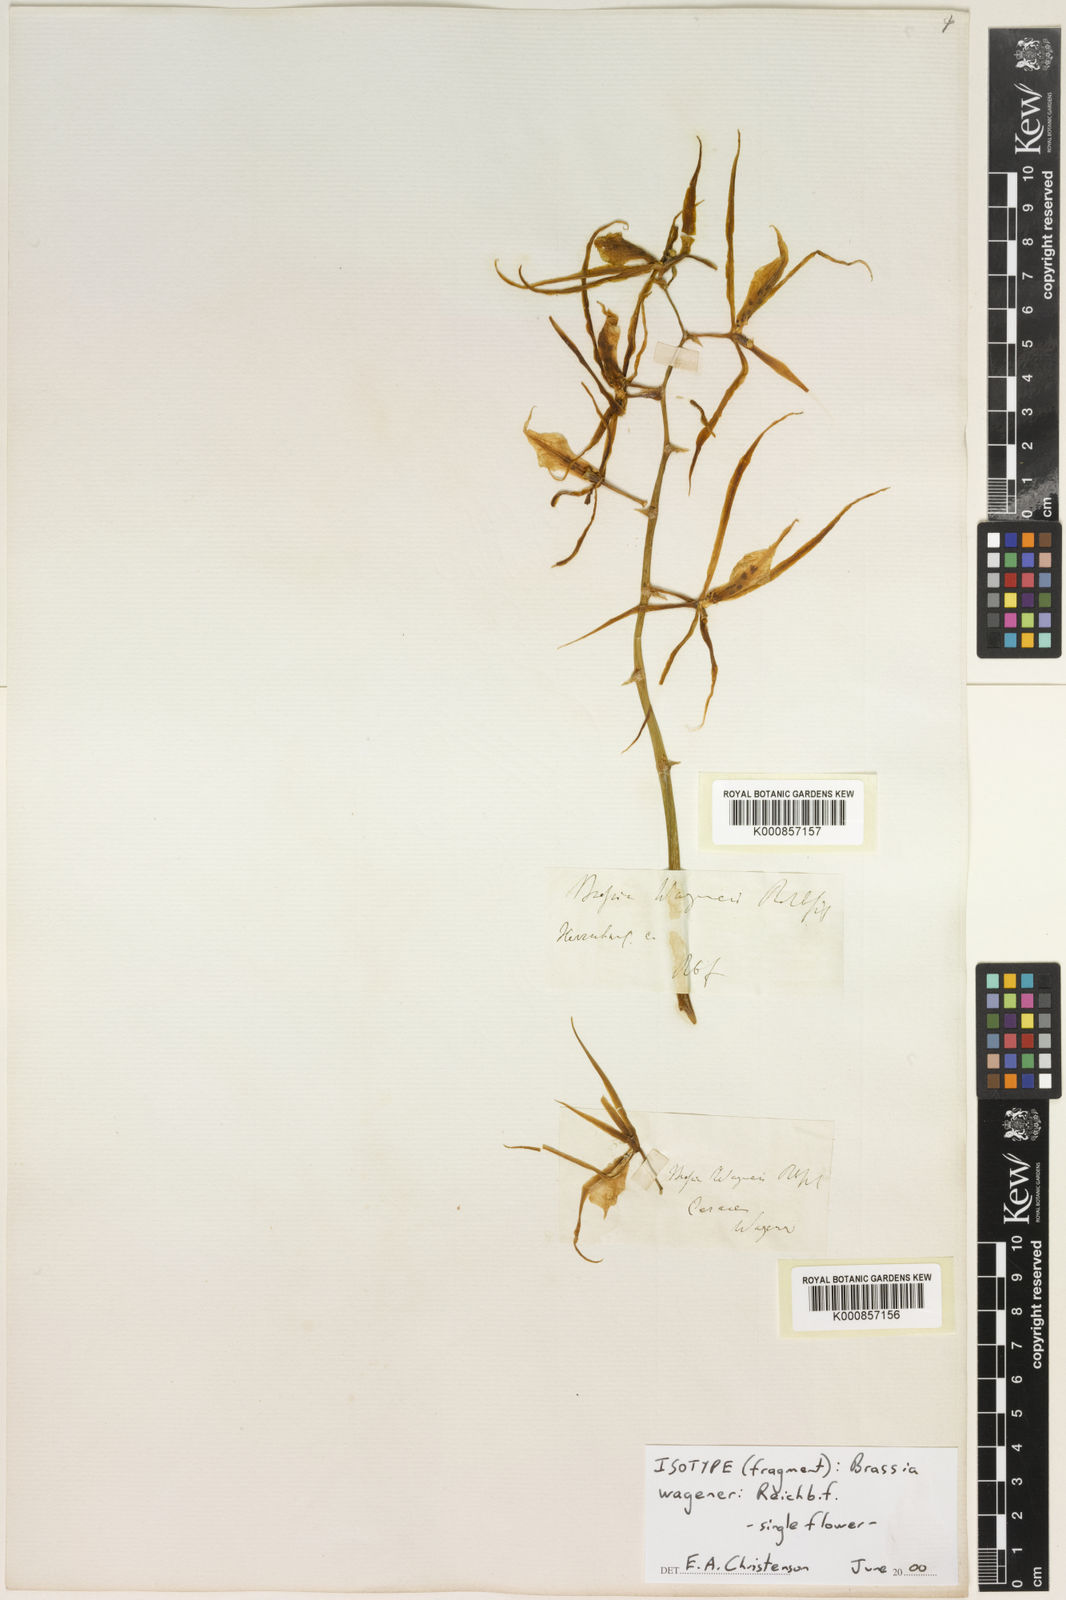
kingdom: Plantae
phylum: Tracheophyta
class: Liliopsida
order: Asparagales
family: Orchidaceae
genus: Brassia
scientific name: Brassia wageneri
